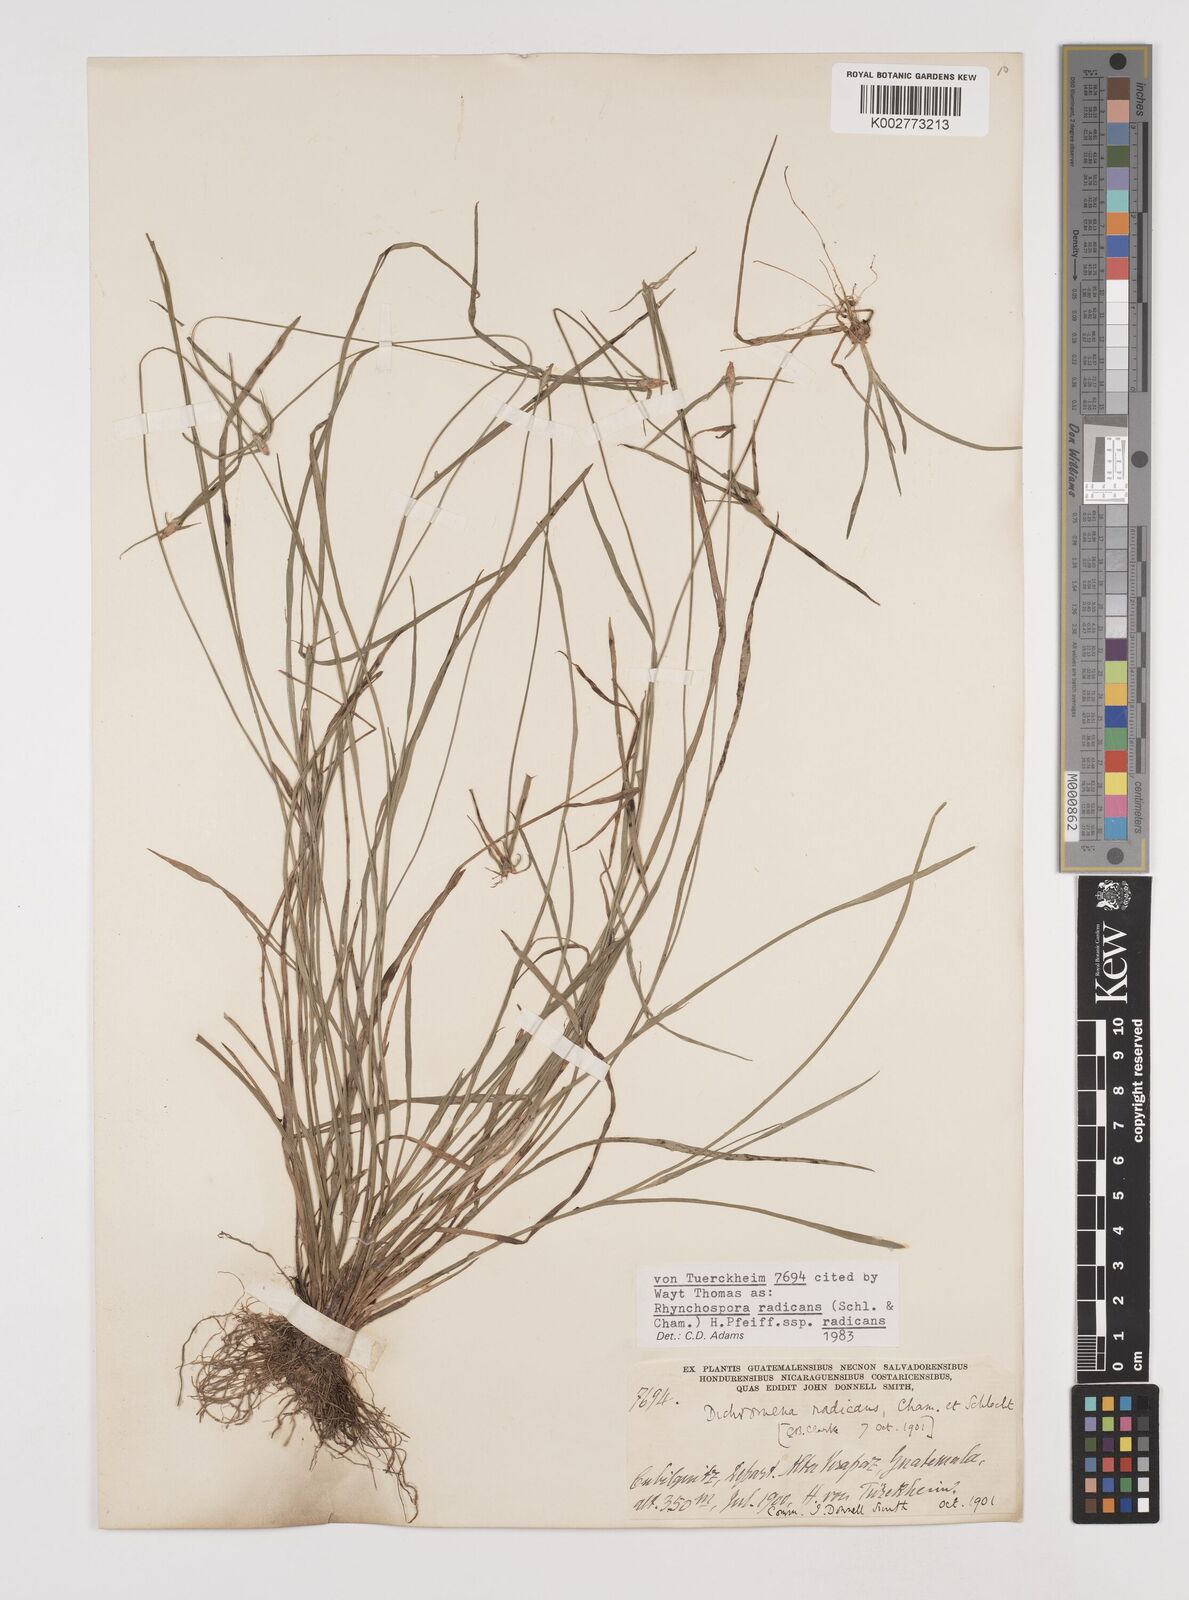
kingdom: Plantae
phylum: Tracheophyta
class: Liliopsida
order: Poales
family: Cyperaceae
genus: Rhynchospora
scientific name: Rhynchospora radicans
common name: Tropical whitetop
